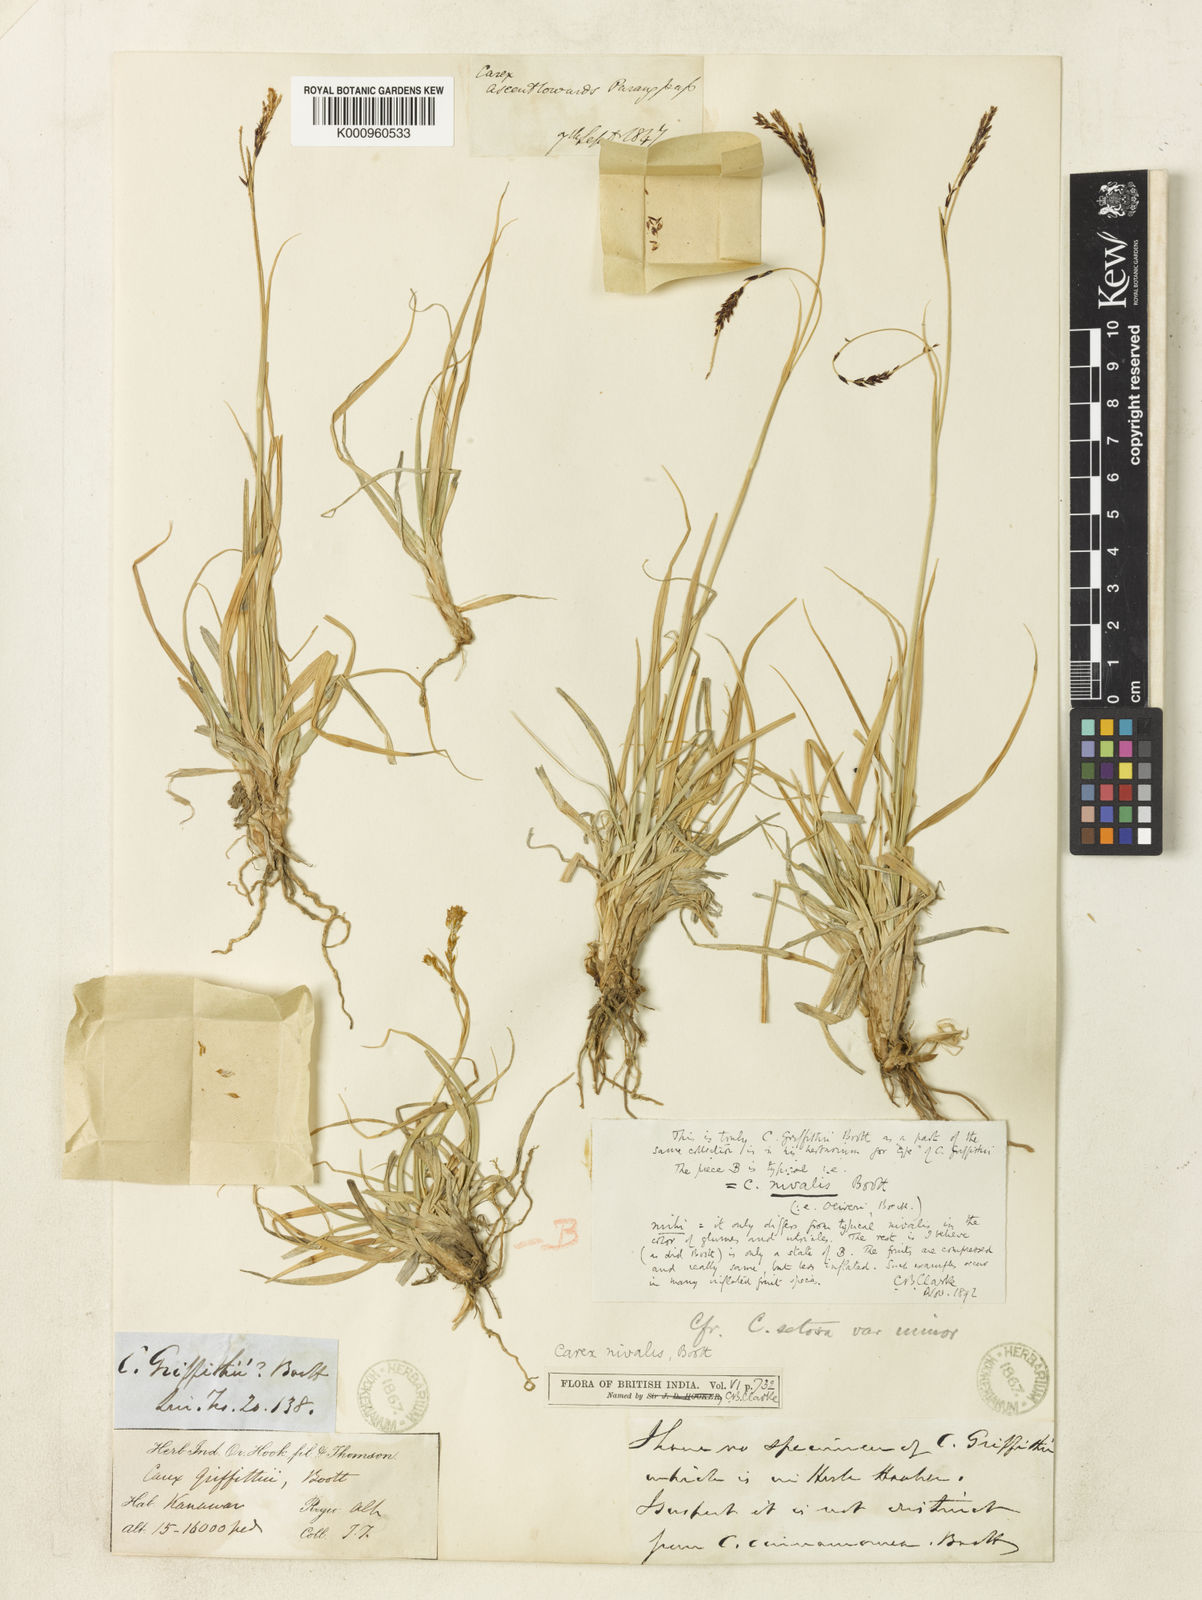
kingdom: Plantae
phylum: Tracheophyta
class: Liliopsida
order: Poales
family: Cyperaceae
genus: Carex
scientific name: Carex nivalis
